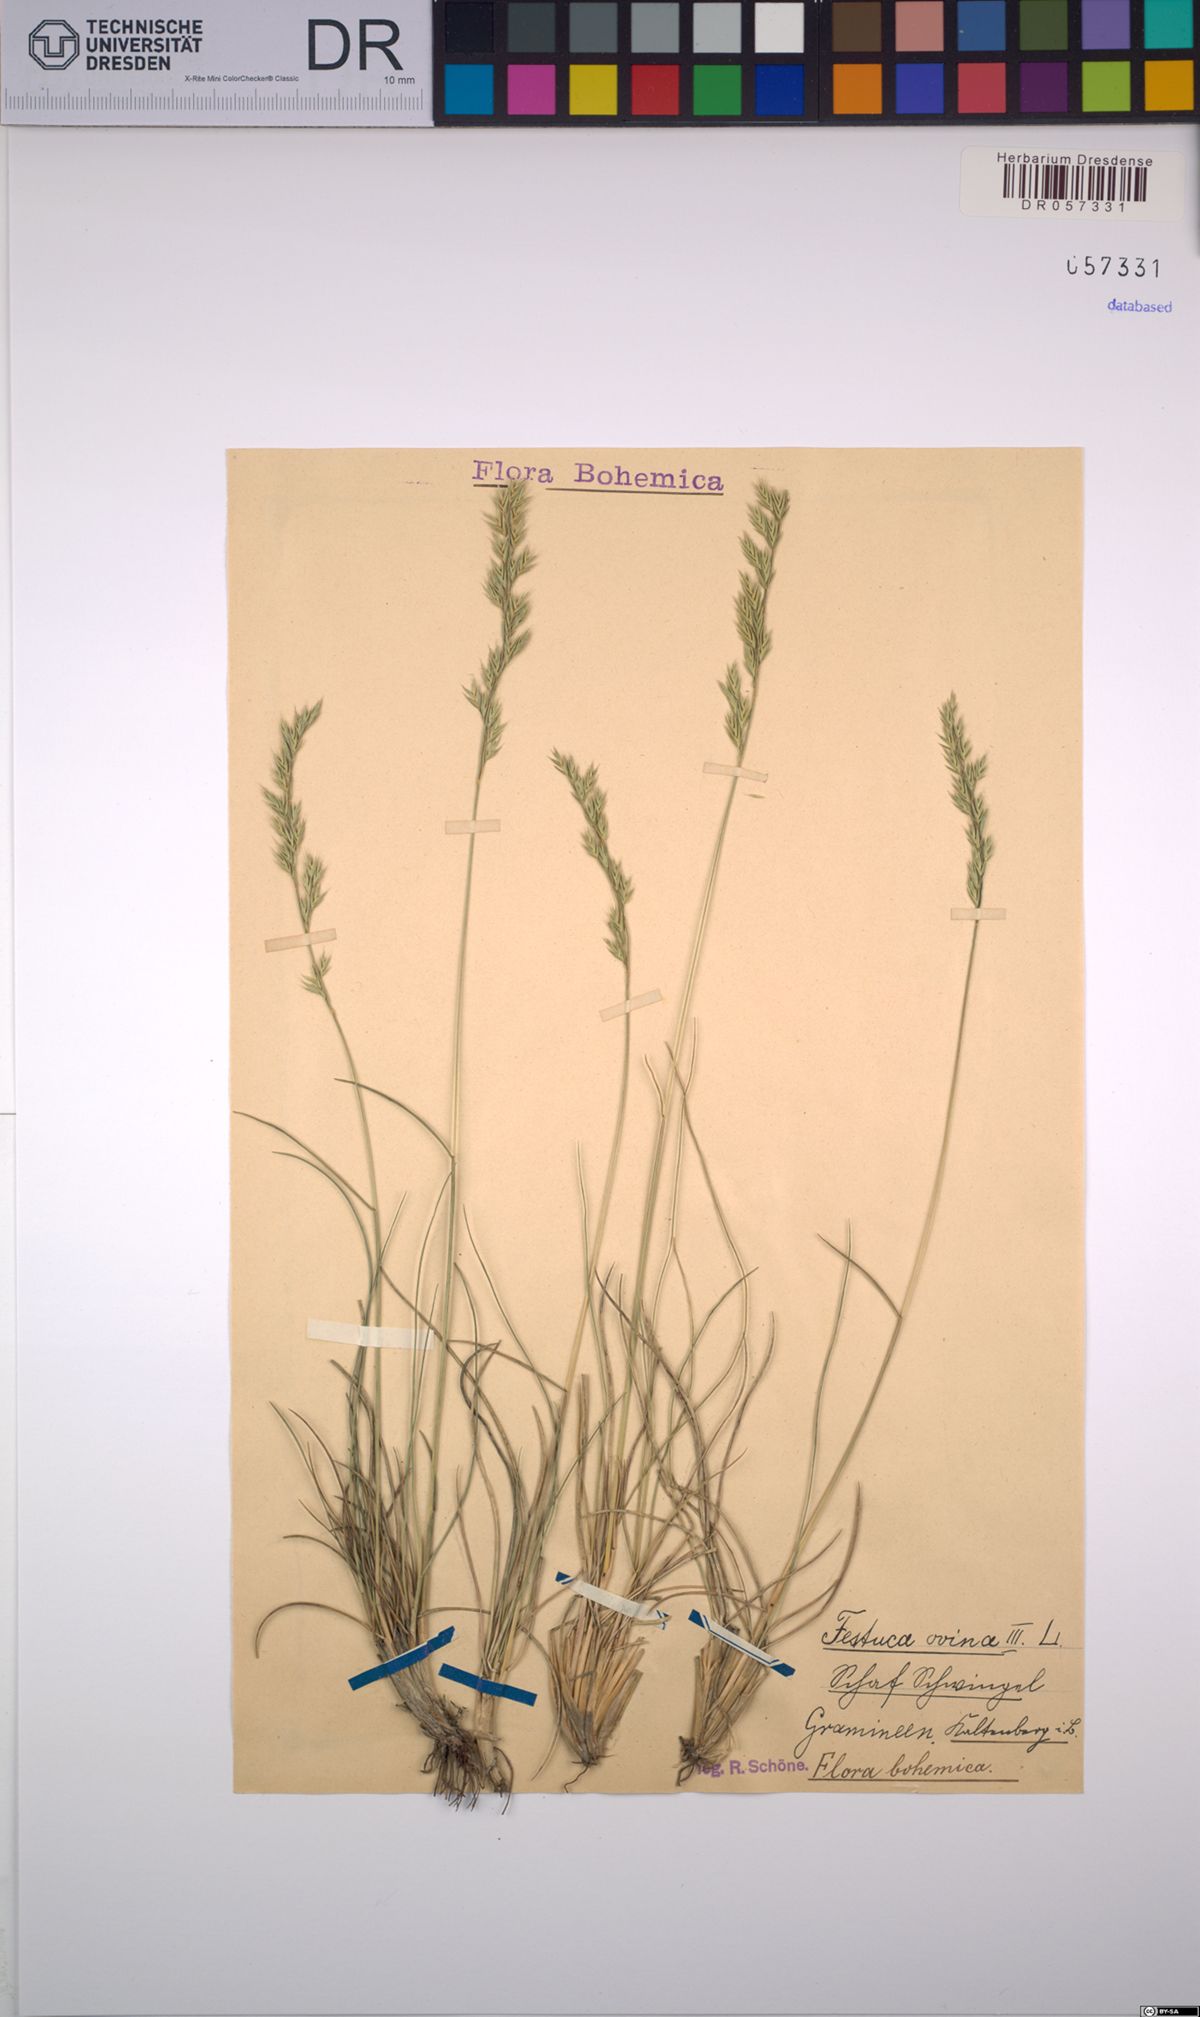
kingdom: Plantae
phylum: Tracheophyta
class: Liliopsida
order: Poales
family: Poaceae
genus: Festuca
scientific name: Festuca ovina
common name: Sheep fescue
